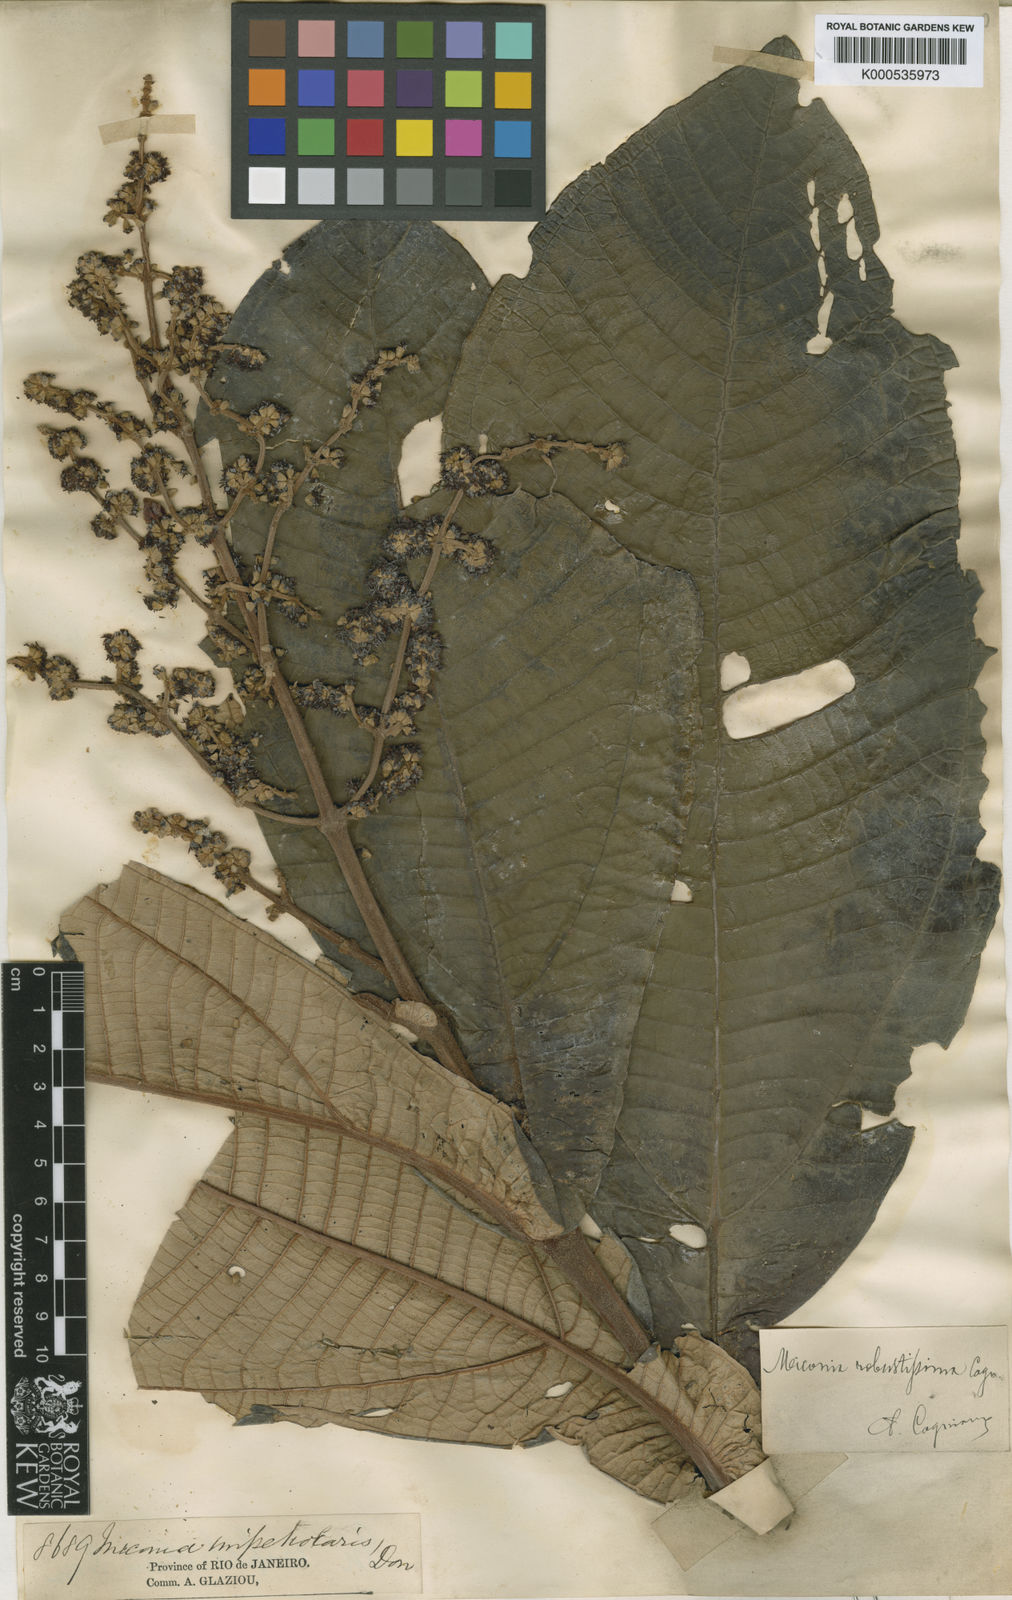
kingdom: Plantae
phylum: Tracheophyta
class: Magnoliopsida
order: Myrtales
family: Melastomataceae
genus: Miconia
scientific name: Miconia robusta
